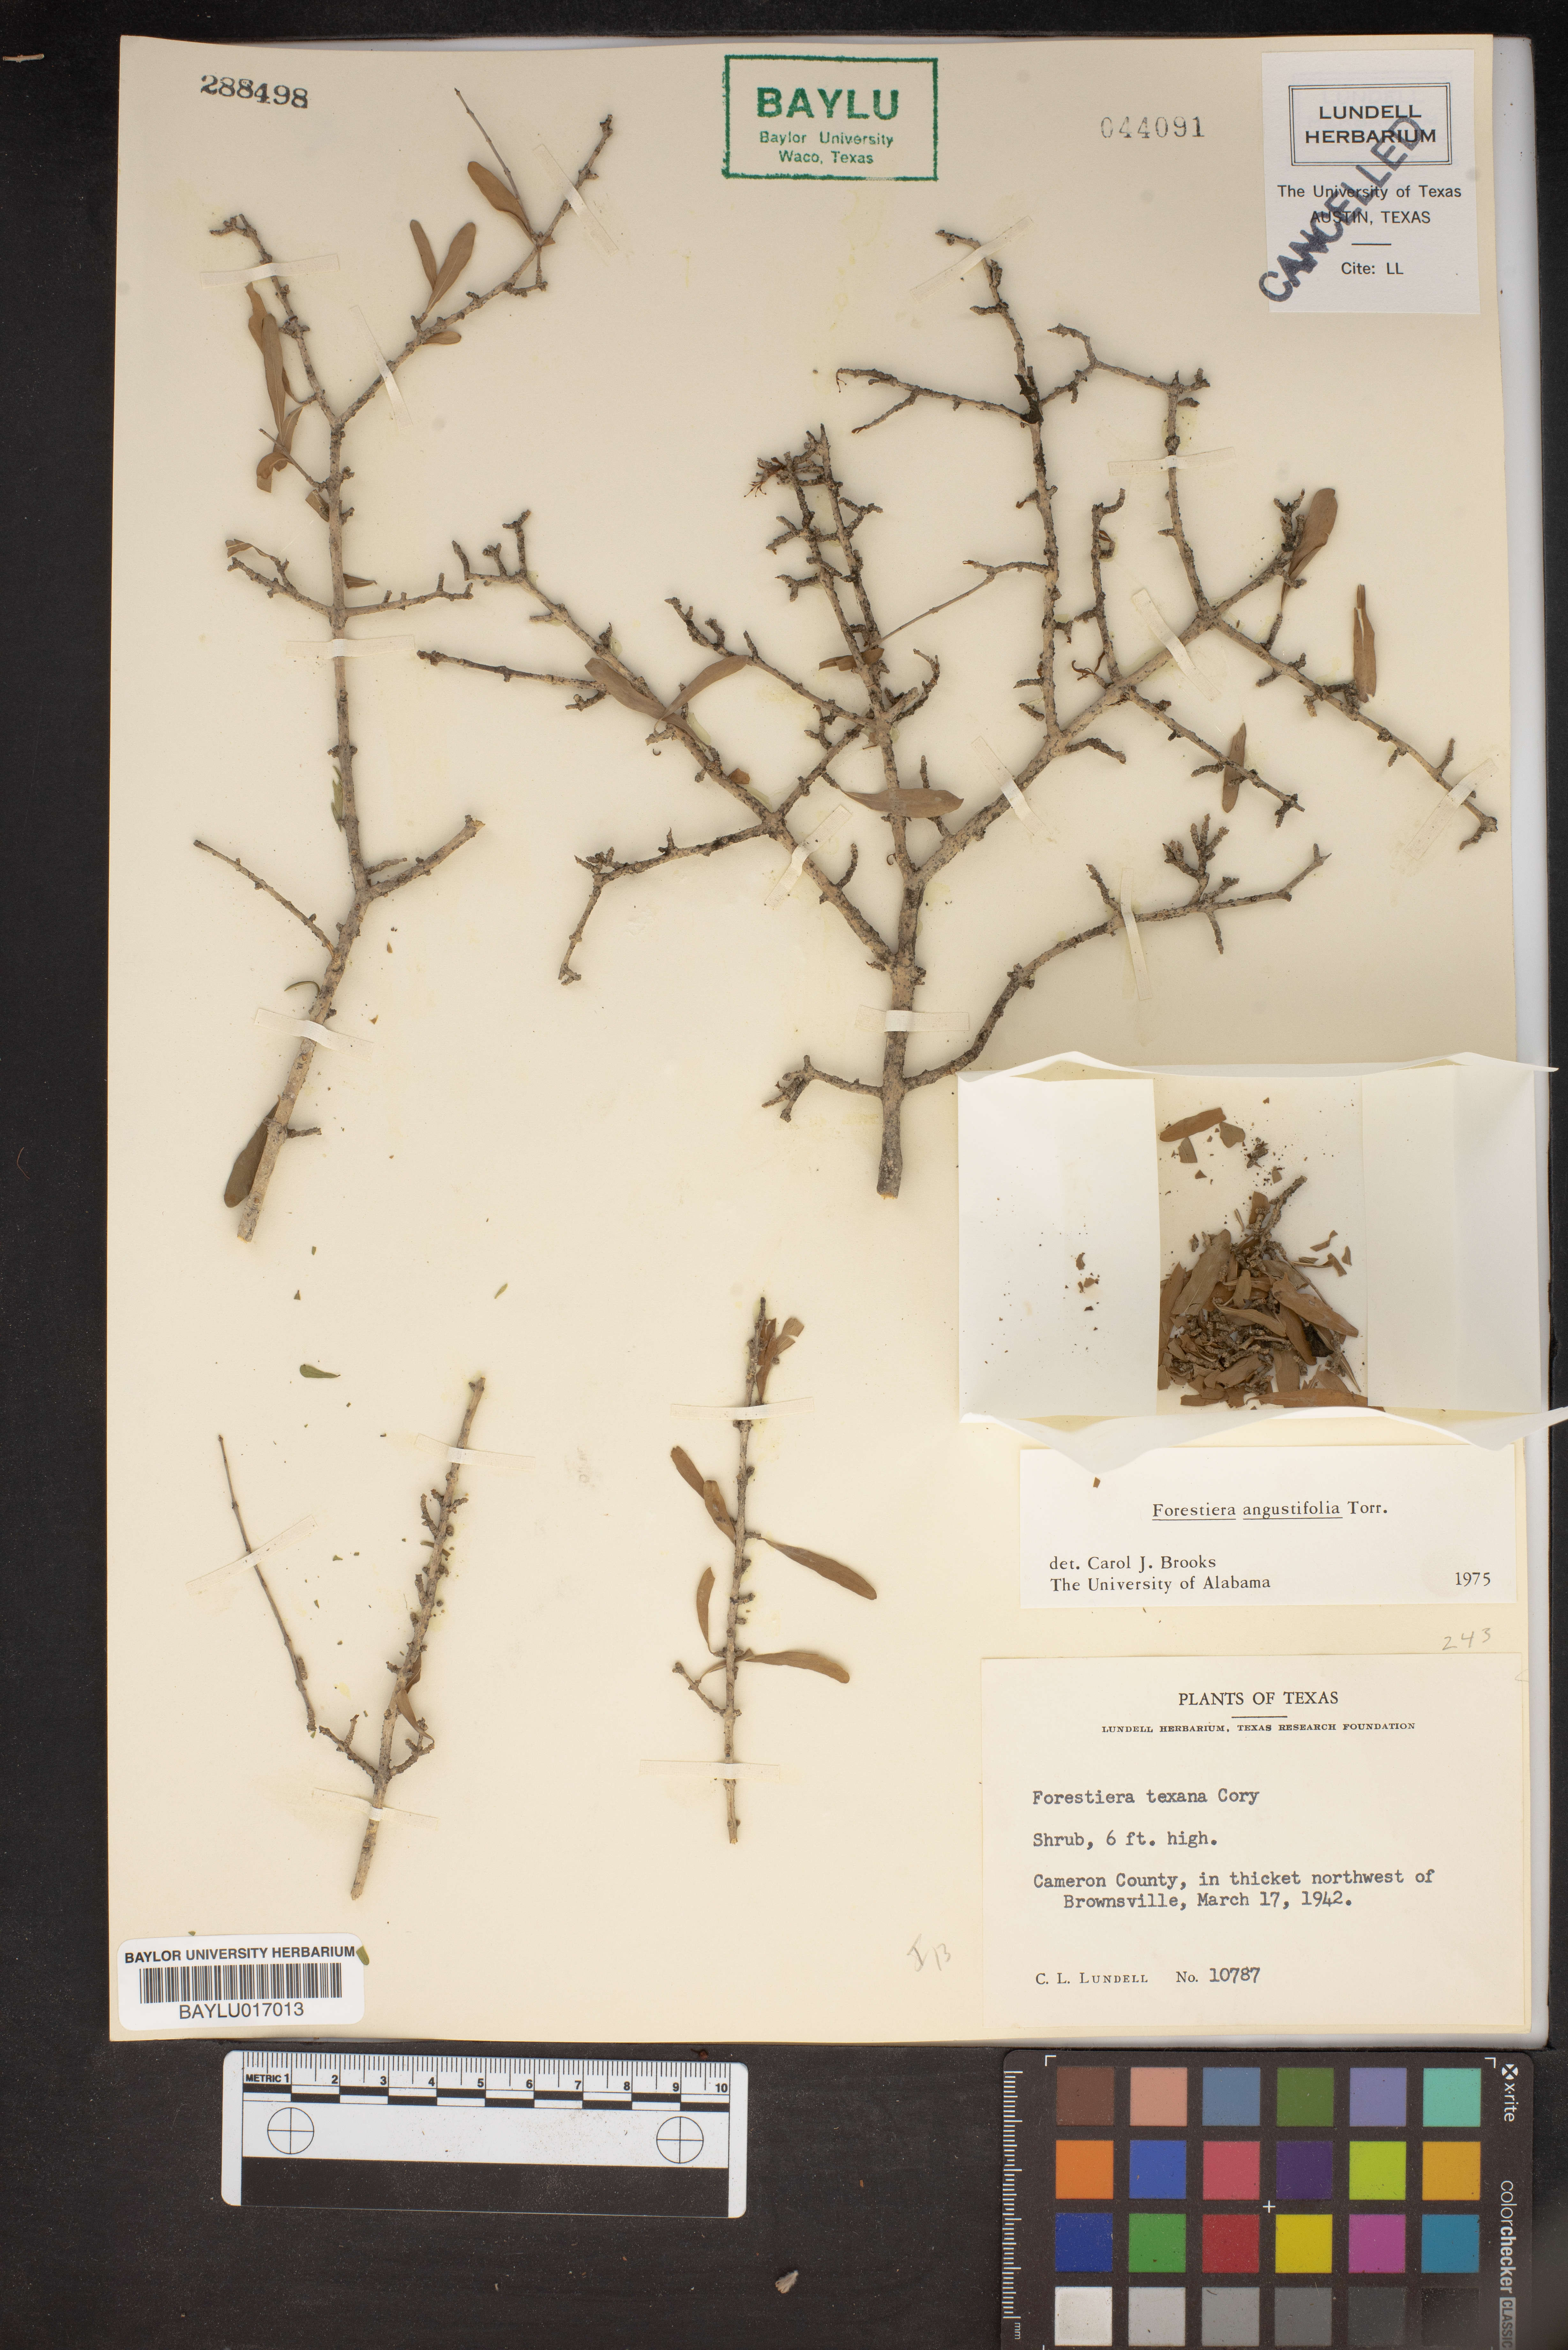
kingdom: Plantae
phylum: Tracheophyta
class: Magnoliopsida
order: Lamiales
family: Oleaceae
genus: Forestiera
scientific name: Forestiera angustifolia
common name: Elbowbush
